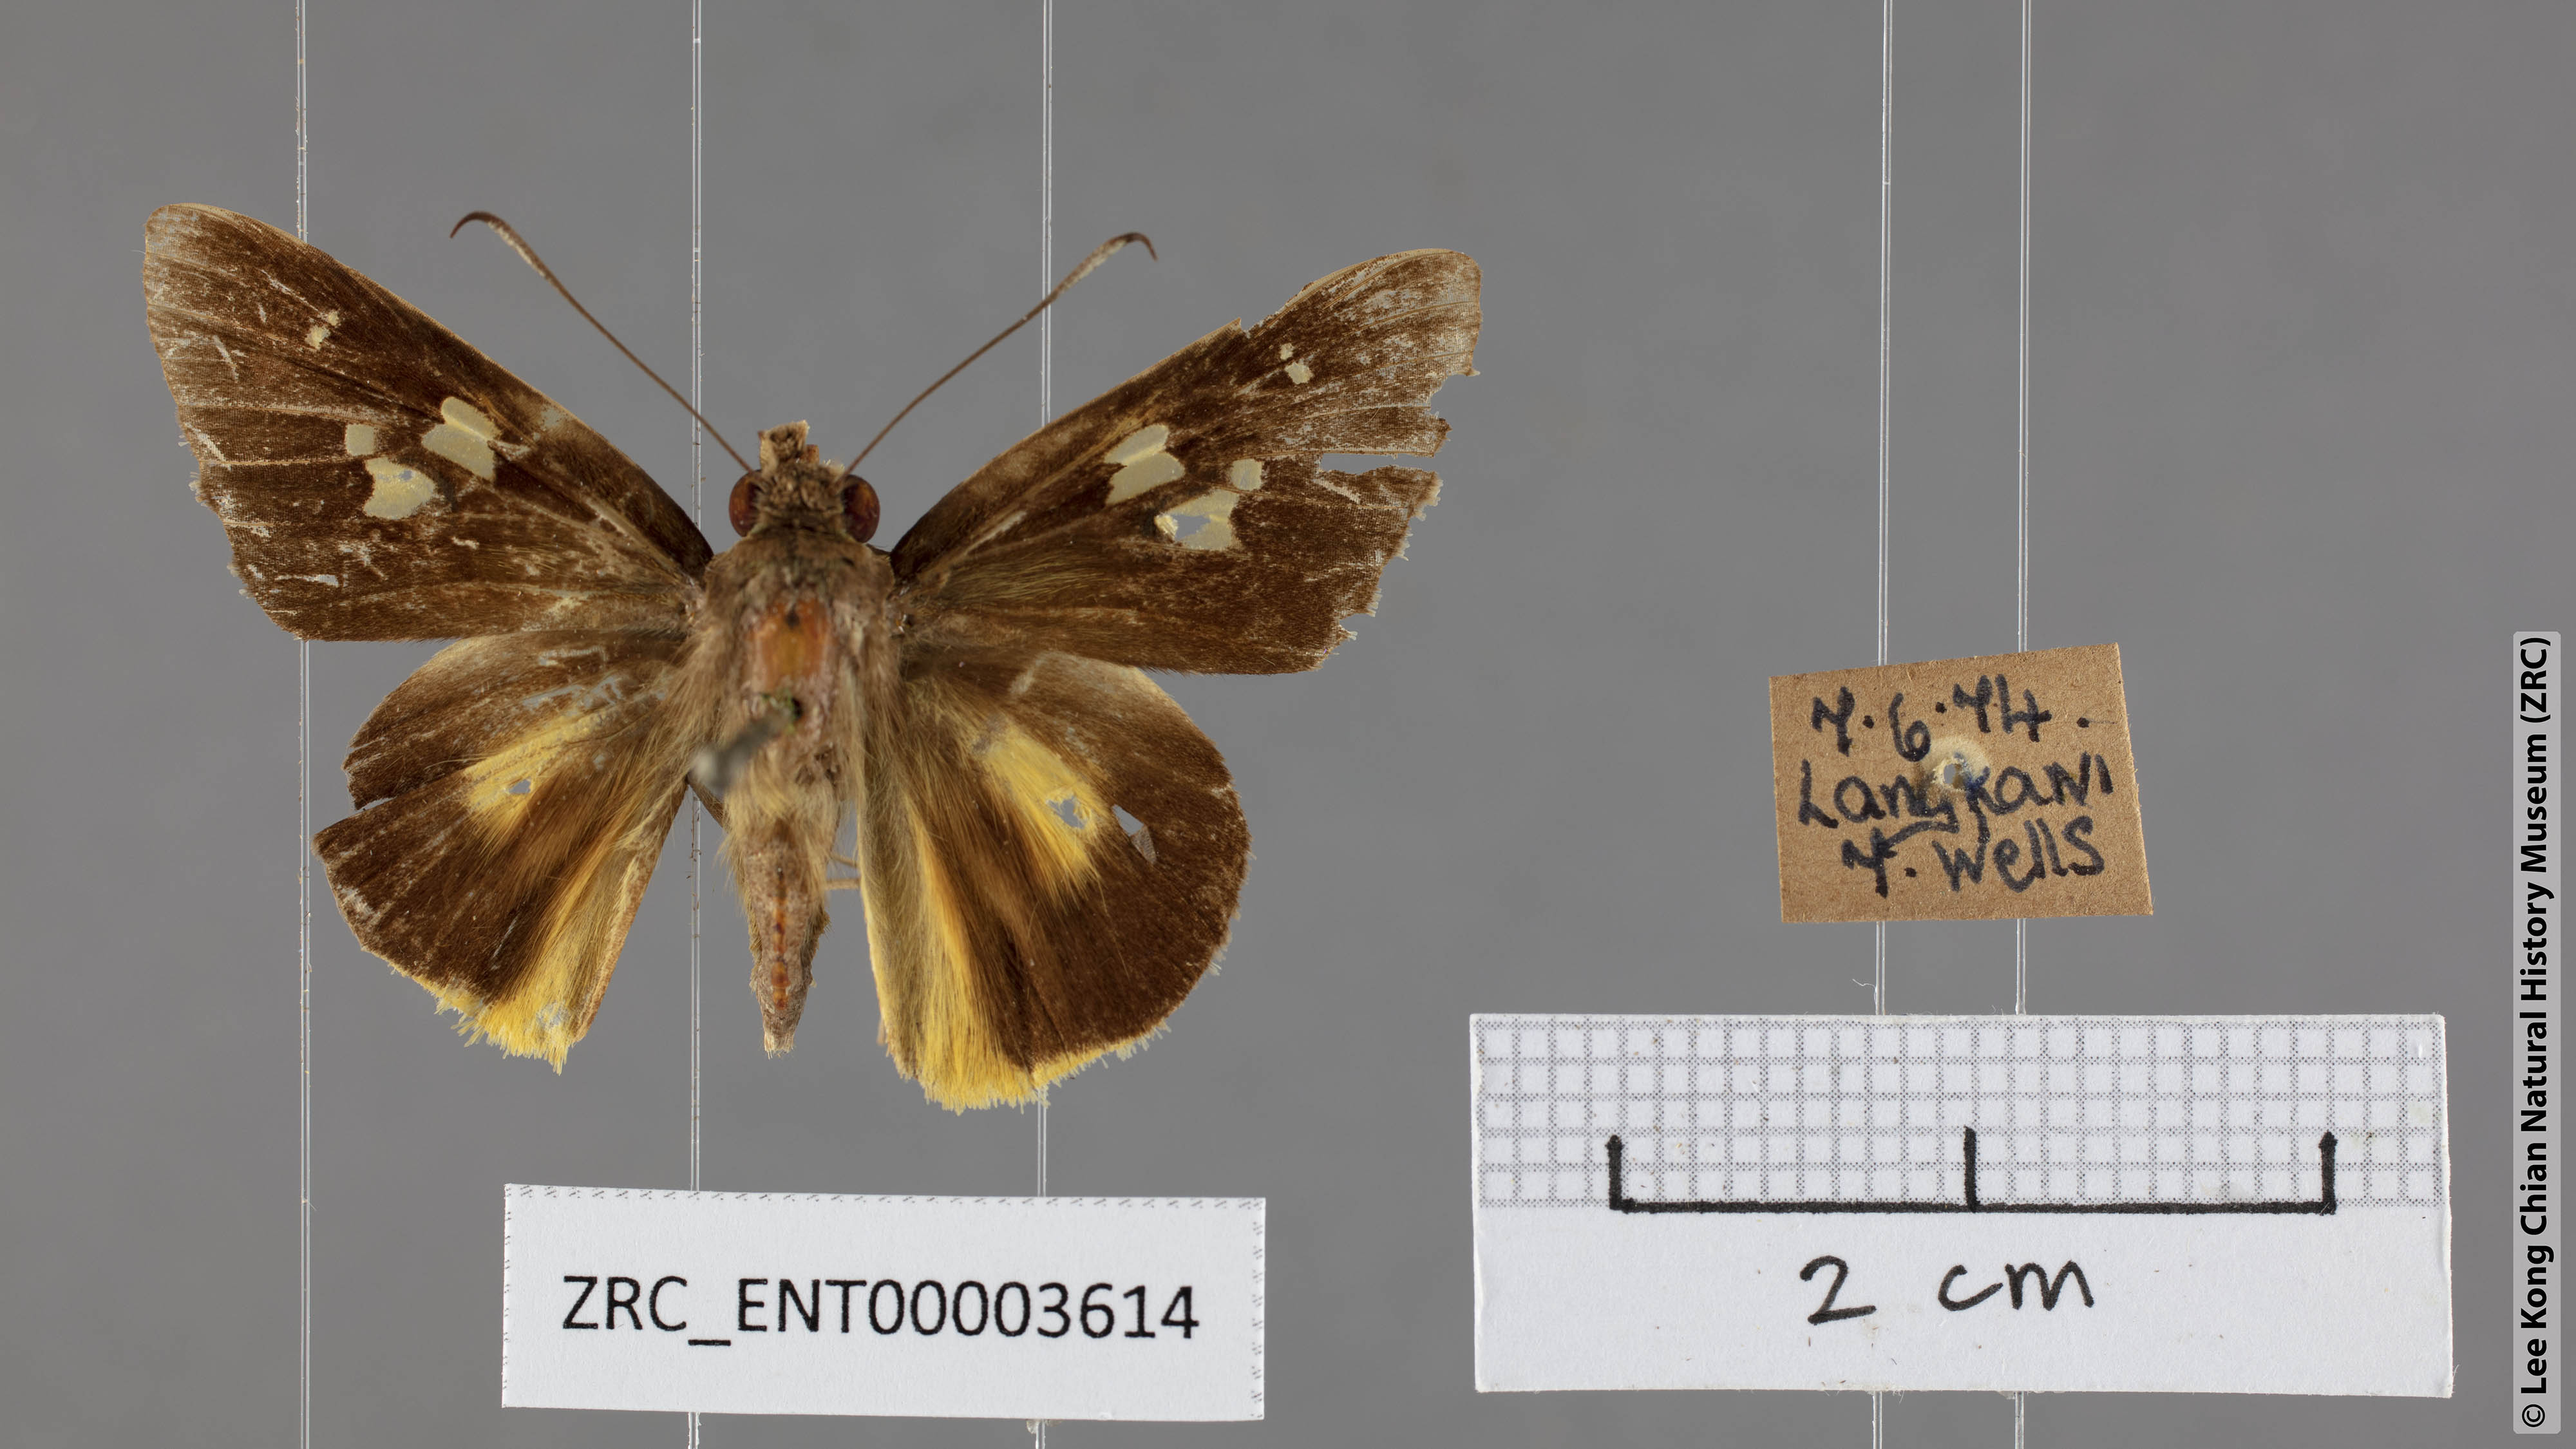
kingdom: Animalia
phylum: Arthropoda
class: Insecta
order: Lepidoptera
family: Hesperiidae
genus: Zela
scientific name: Zela excellens
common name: White-club yellow palmer
